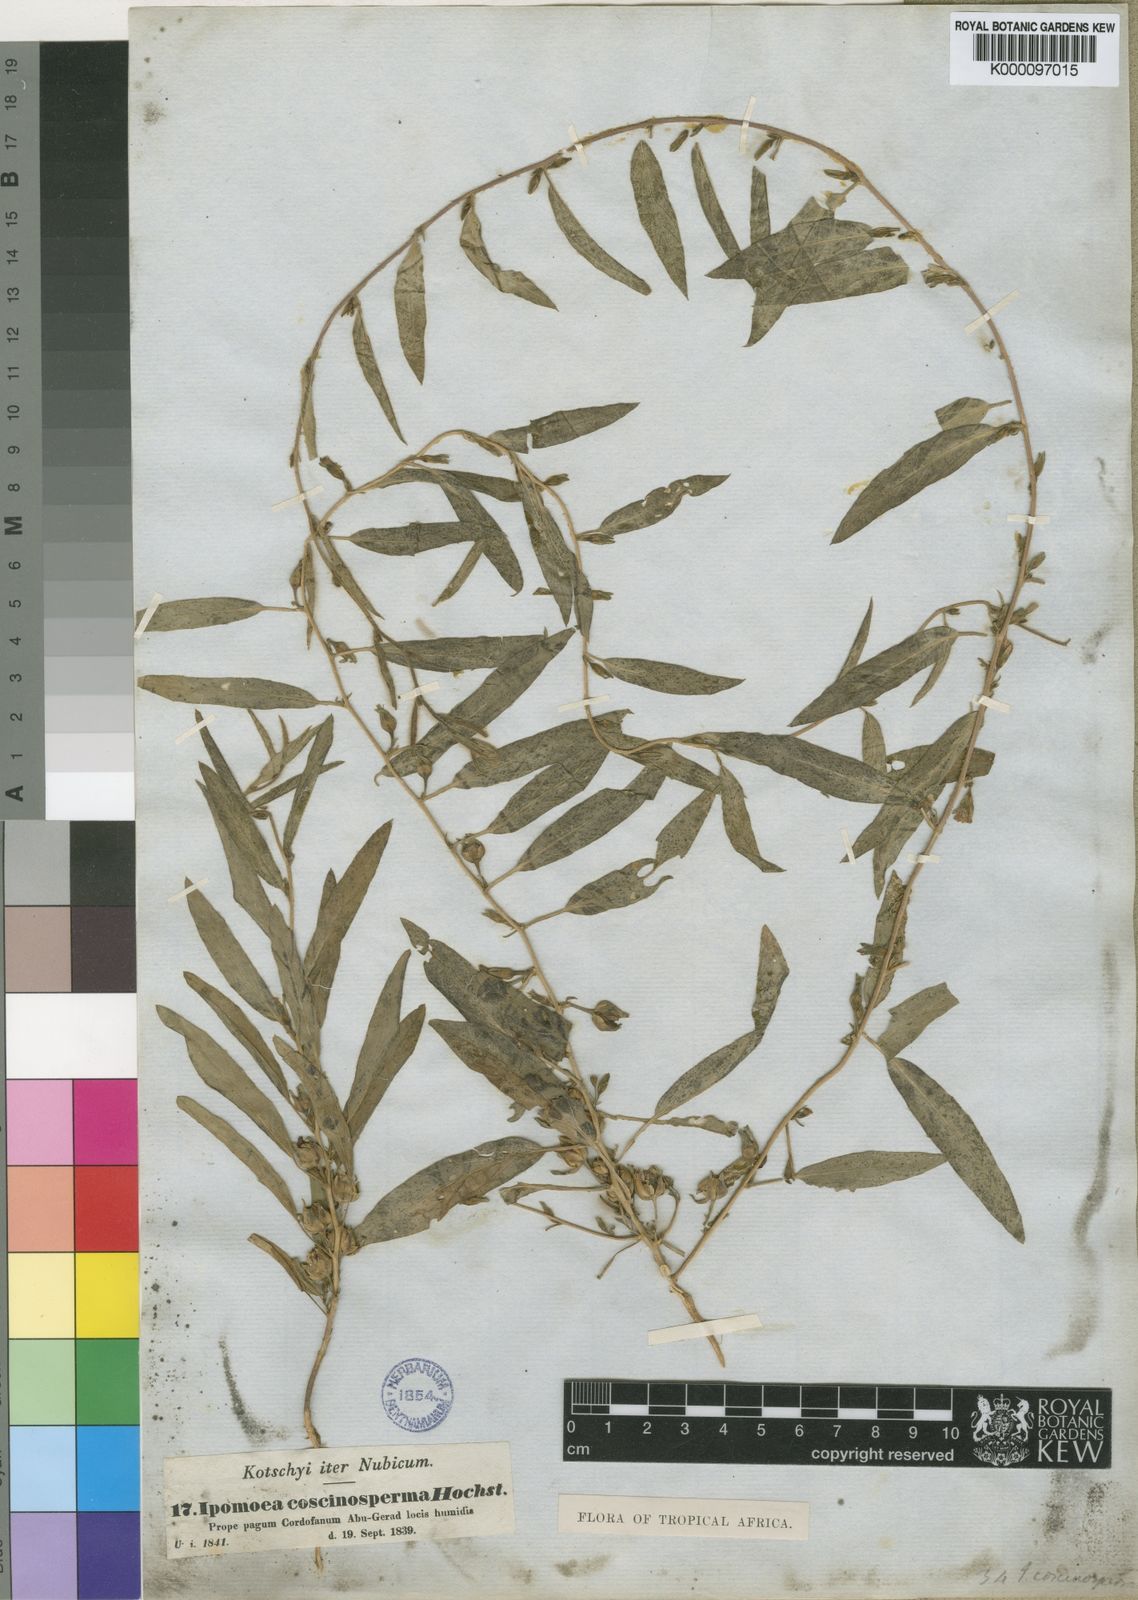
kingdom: Plantae
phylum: Tracheophyta
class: Magnoliopsida
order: Solanales
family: Convolvulaceae
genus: Ipomoea
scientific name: Ipomoea coscinosperma
